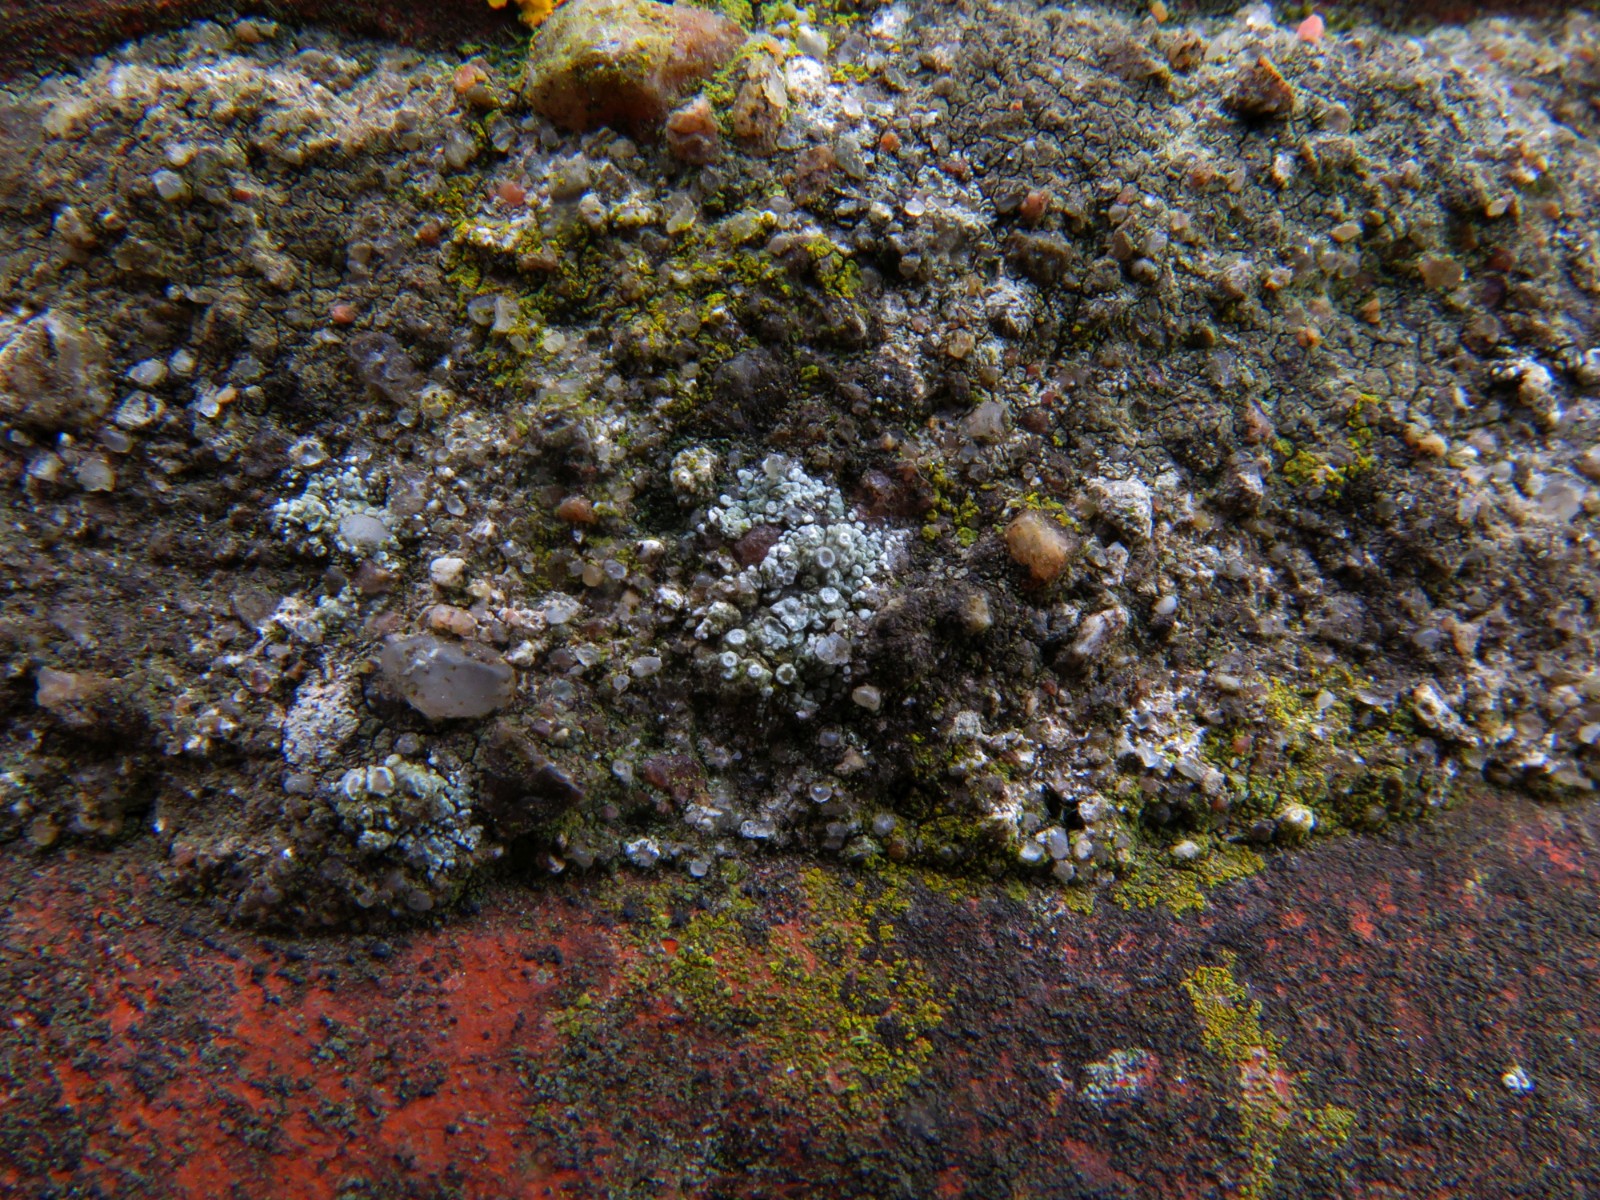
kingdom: Fungi
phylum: Ascomycota
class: Lecanoromycetes
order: Lecanorales
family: Lecanoraceae
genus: Polyozosia
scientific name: Polyozosia albescens
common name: cement-kantskivelav
